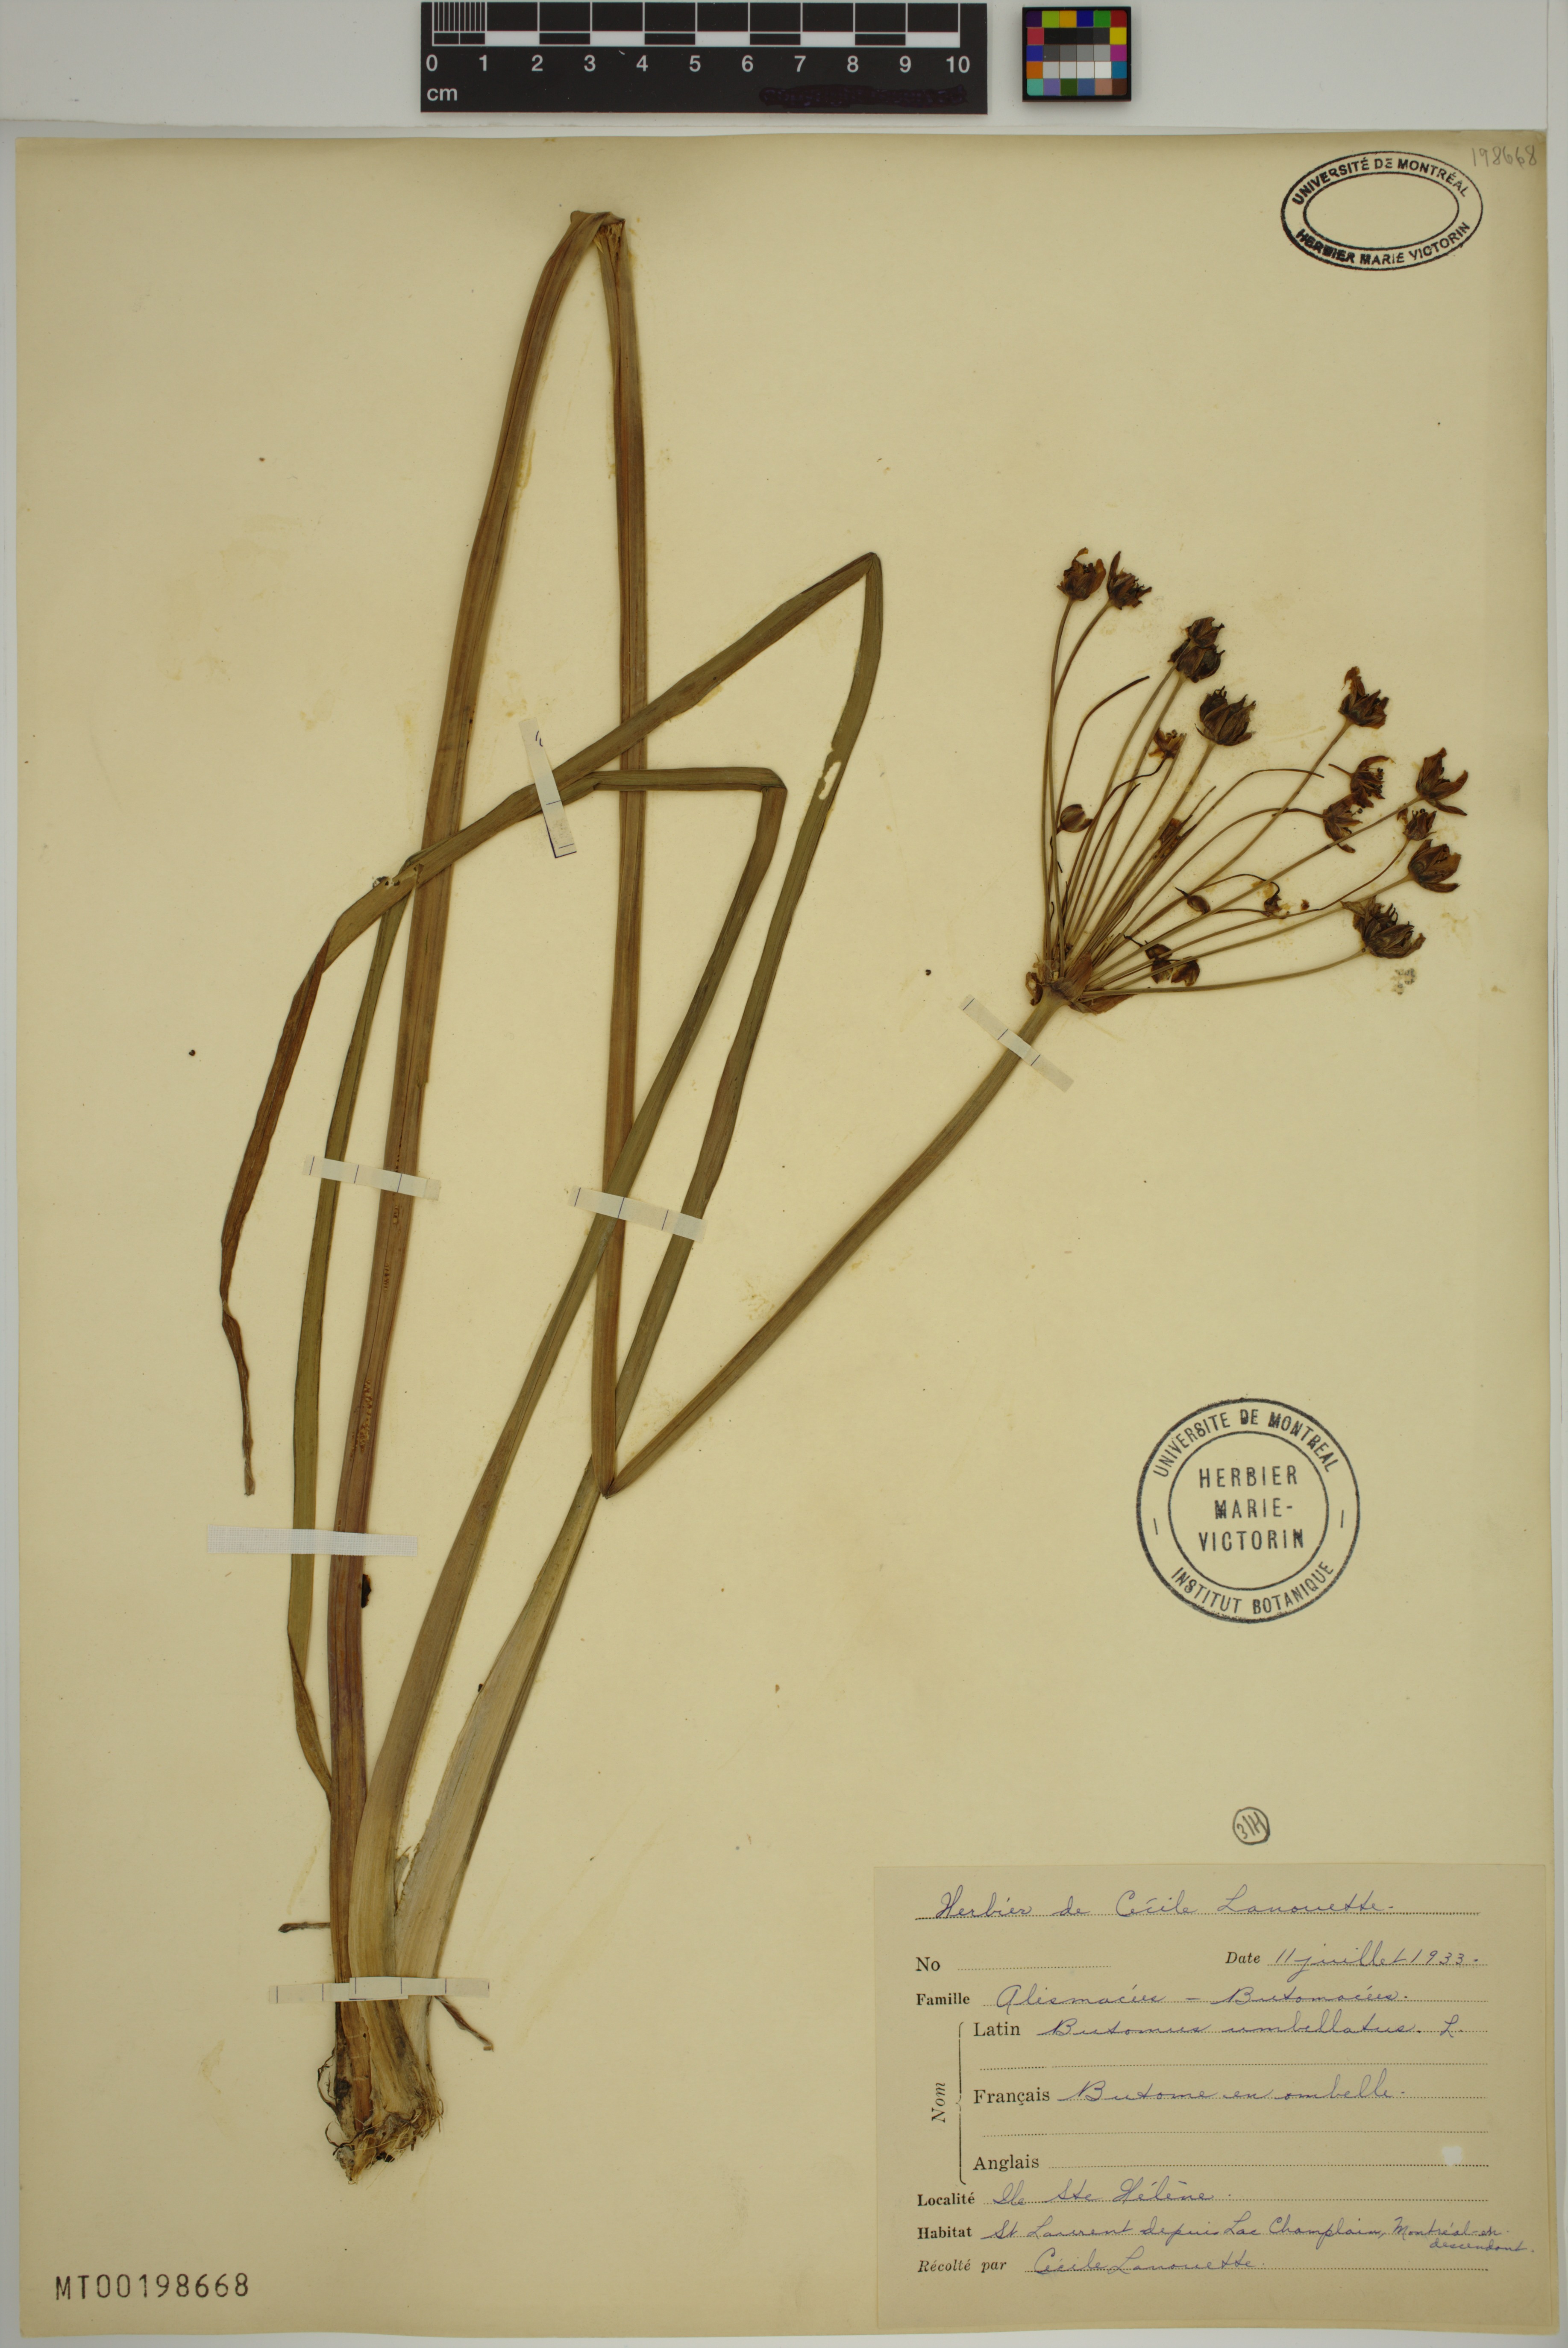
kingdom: Plantae
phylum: Tracheophyta
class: Liliopsida
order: Alismatales
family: Butomaceae
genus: Butomus
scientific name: Butomus umbellatus
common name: Flowering-rush
